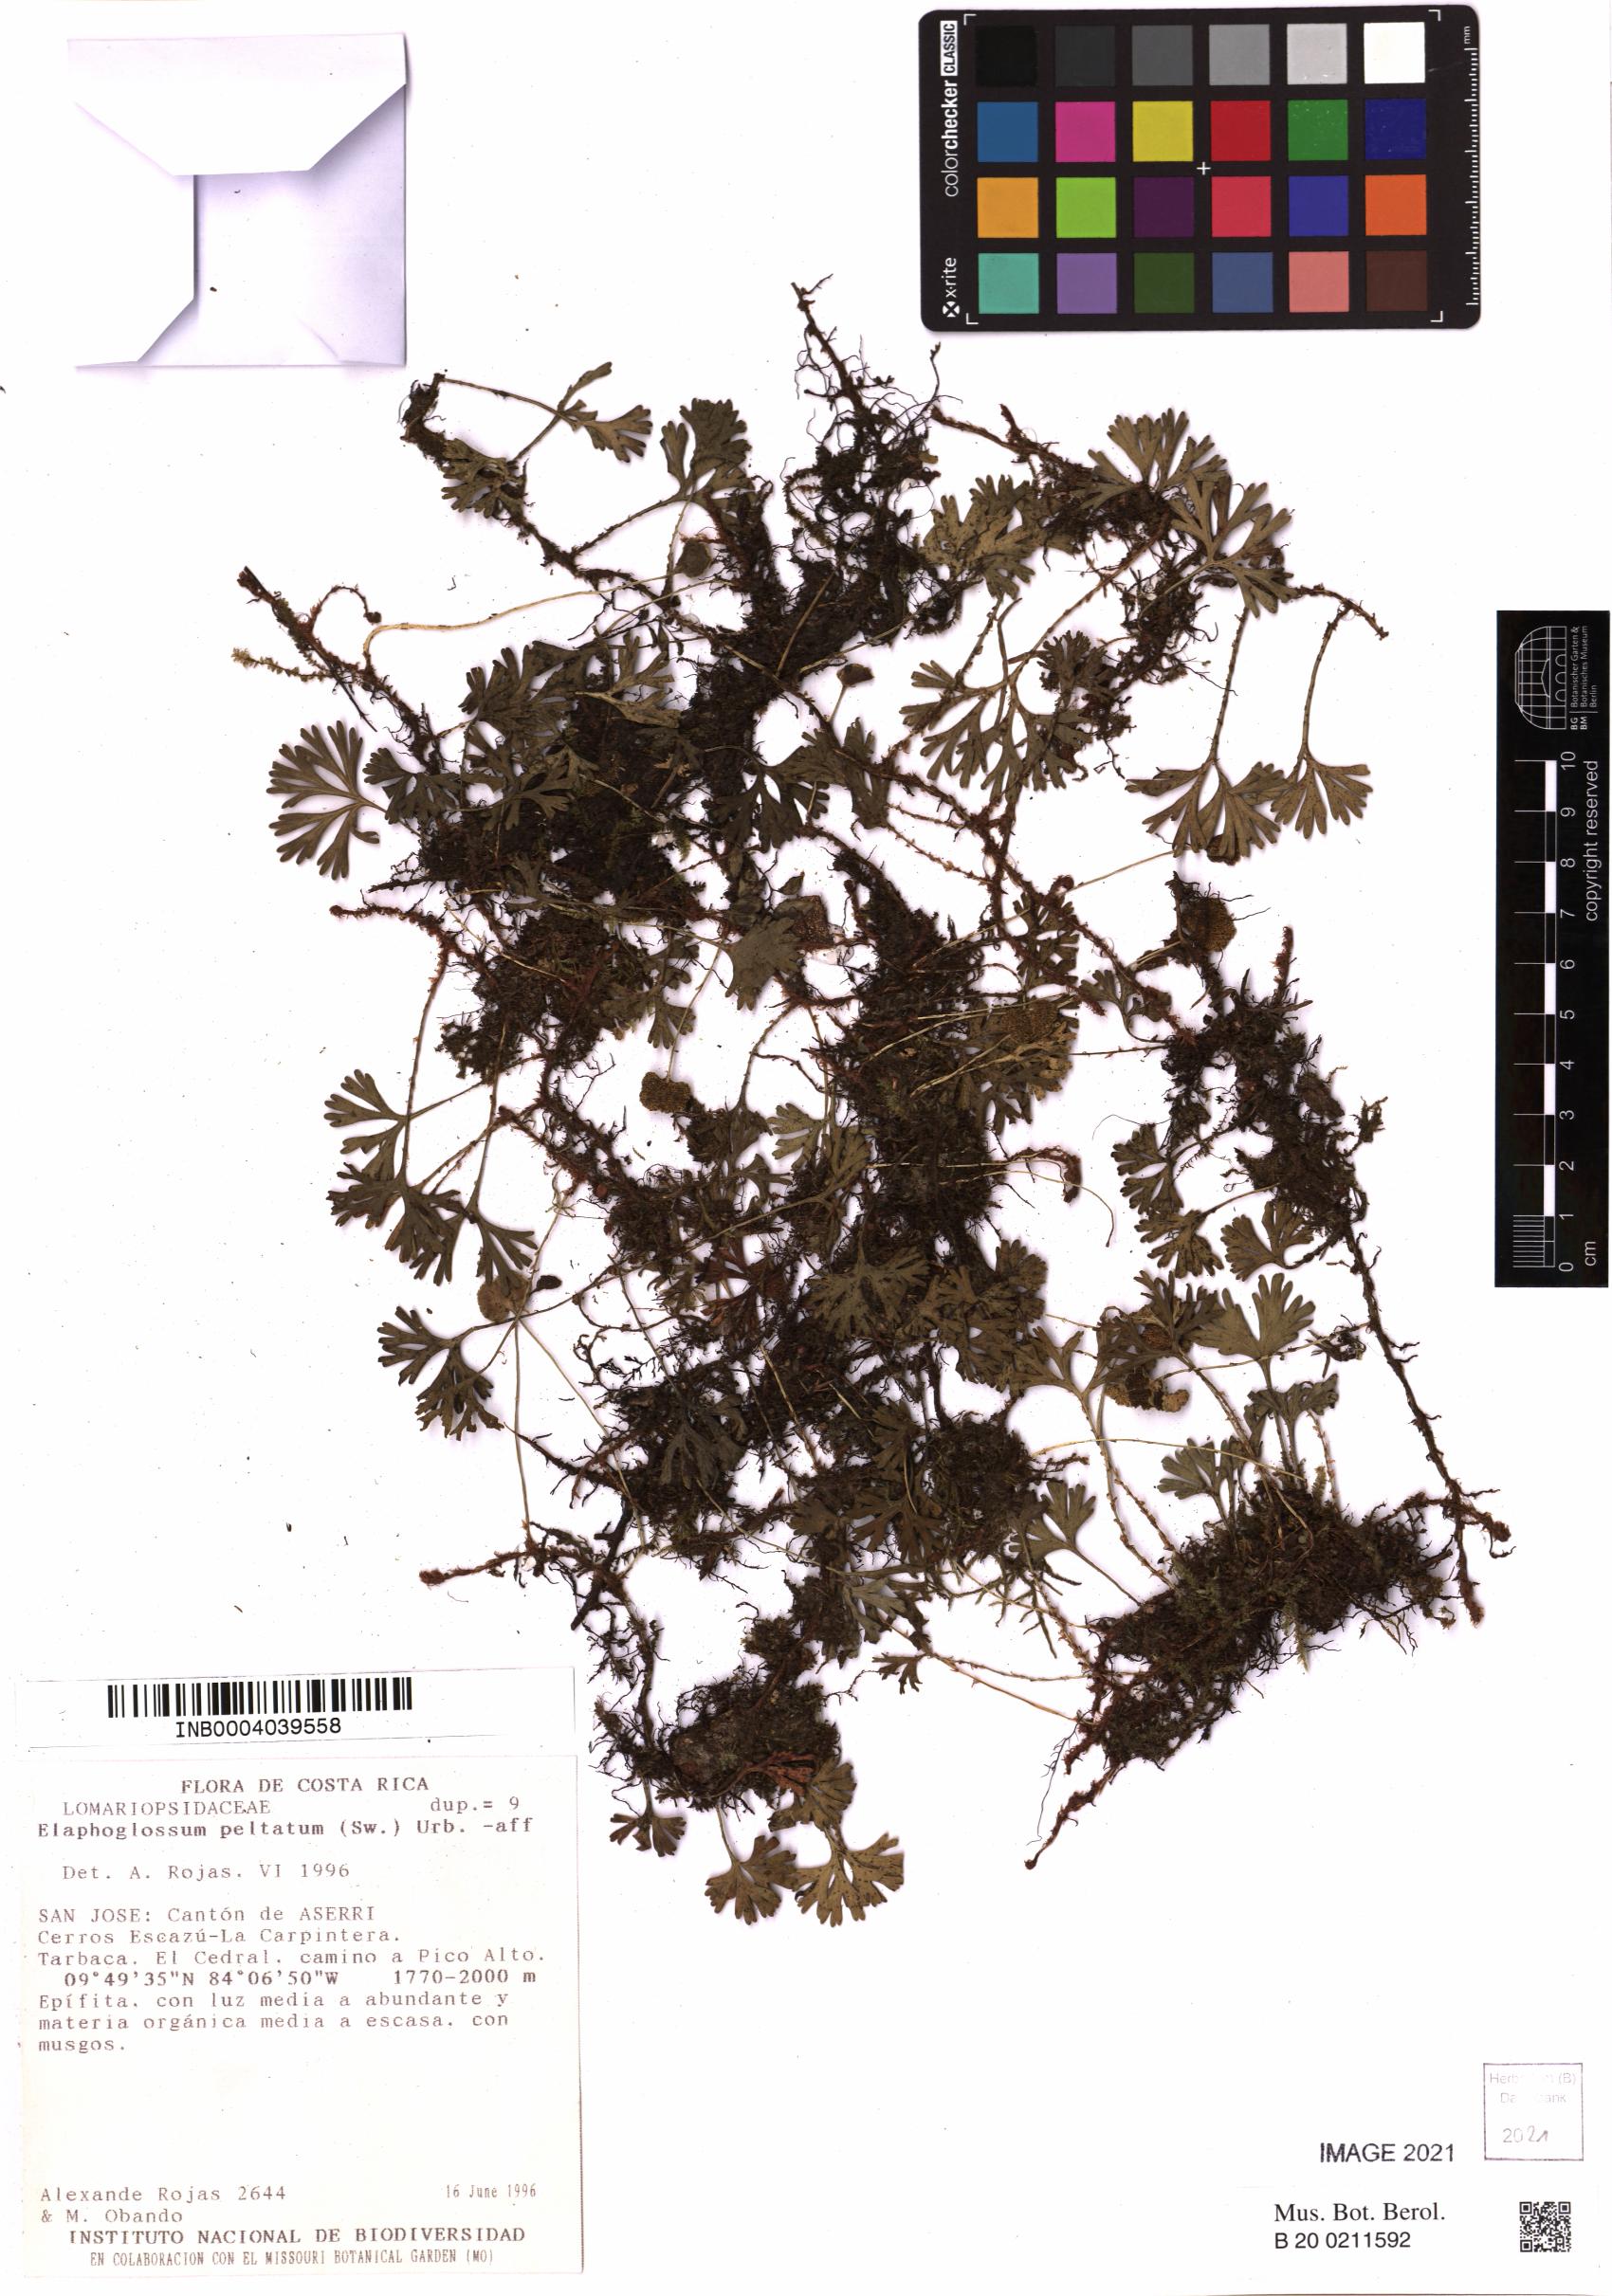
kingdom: Plantae
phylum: Tracheophyta
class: Polypodiopsida
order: Polypodiales
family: Dryopteridaceae
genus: Elaphoglossum
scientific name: Elaphoglossum peltatum
